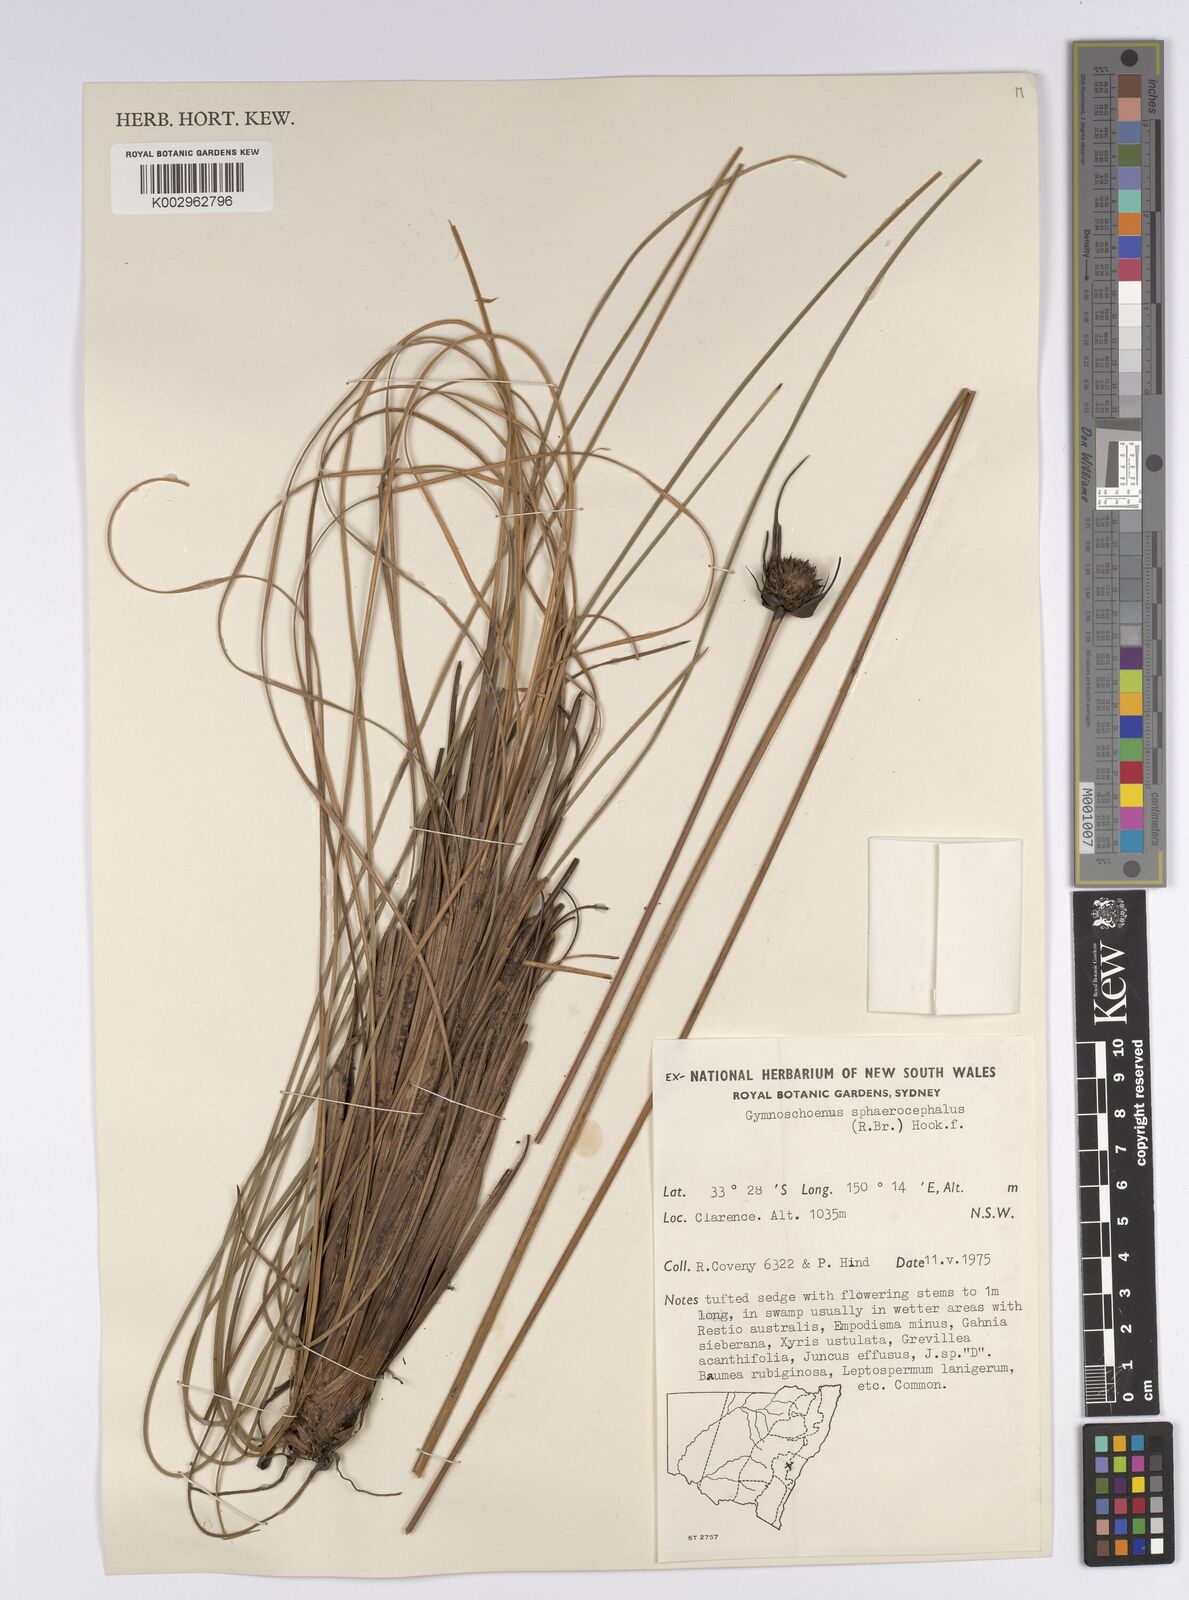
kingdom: Plantae
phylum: Tracheophyta
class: Liliopsida
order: Poales
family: Cyperaceae
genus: Gymnoschoenus
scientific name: Gymnoschoenus sphaerocephalus
